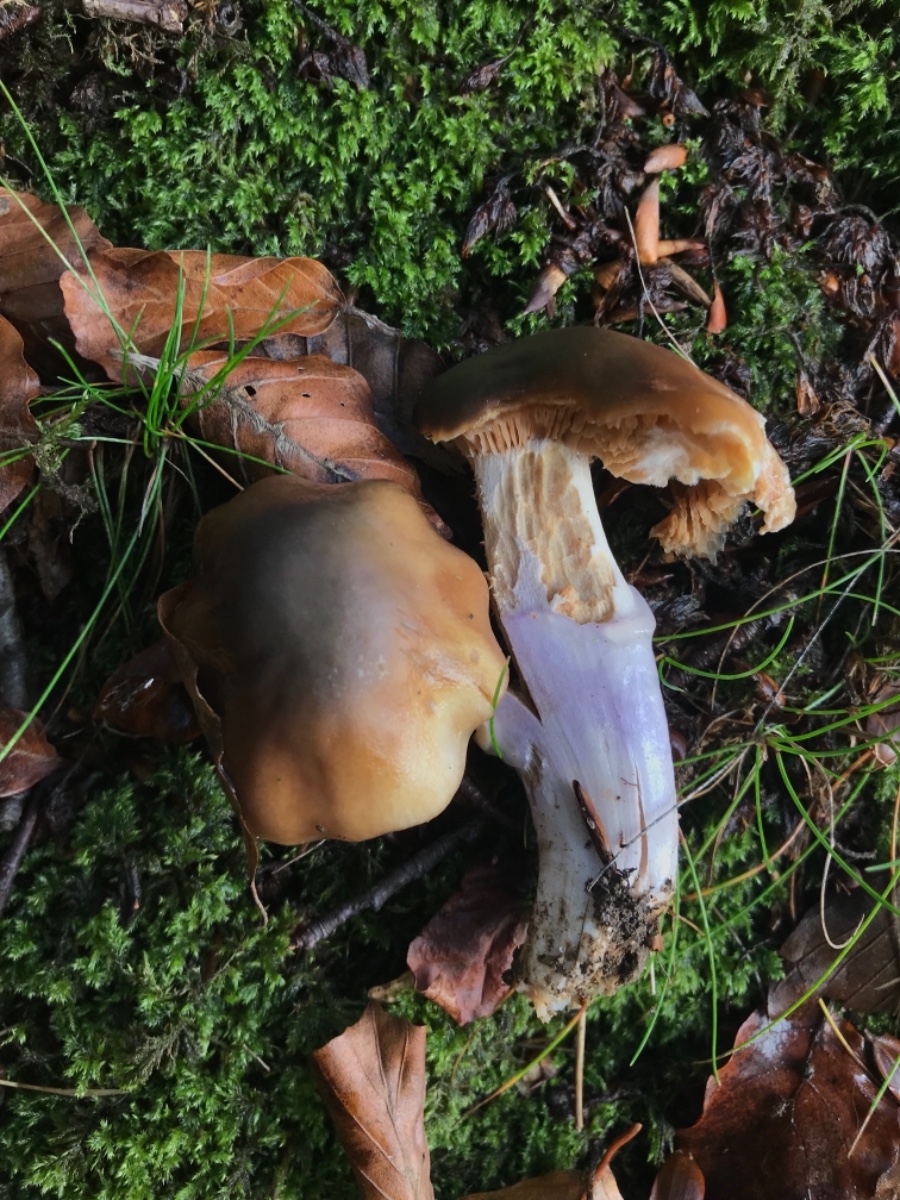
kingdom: Fungi
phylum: Basidiomycota
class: Agaricomycetes
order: Agaricales
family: Cortinariaceae
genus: Cortinarius
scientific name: Cortinarius elatior
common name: høj slørhat
